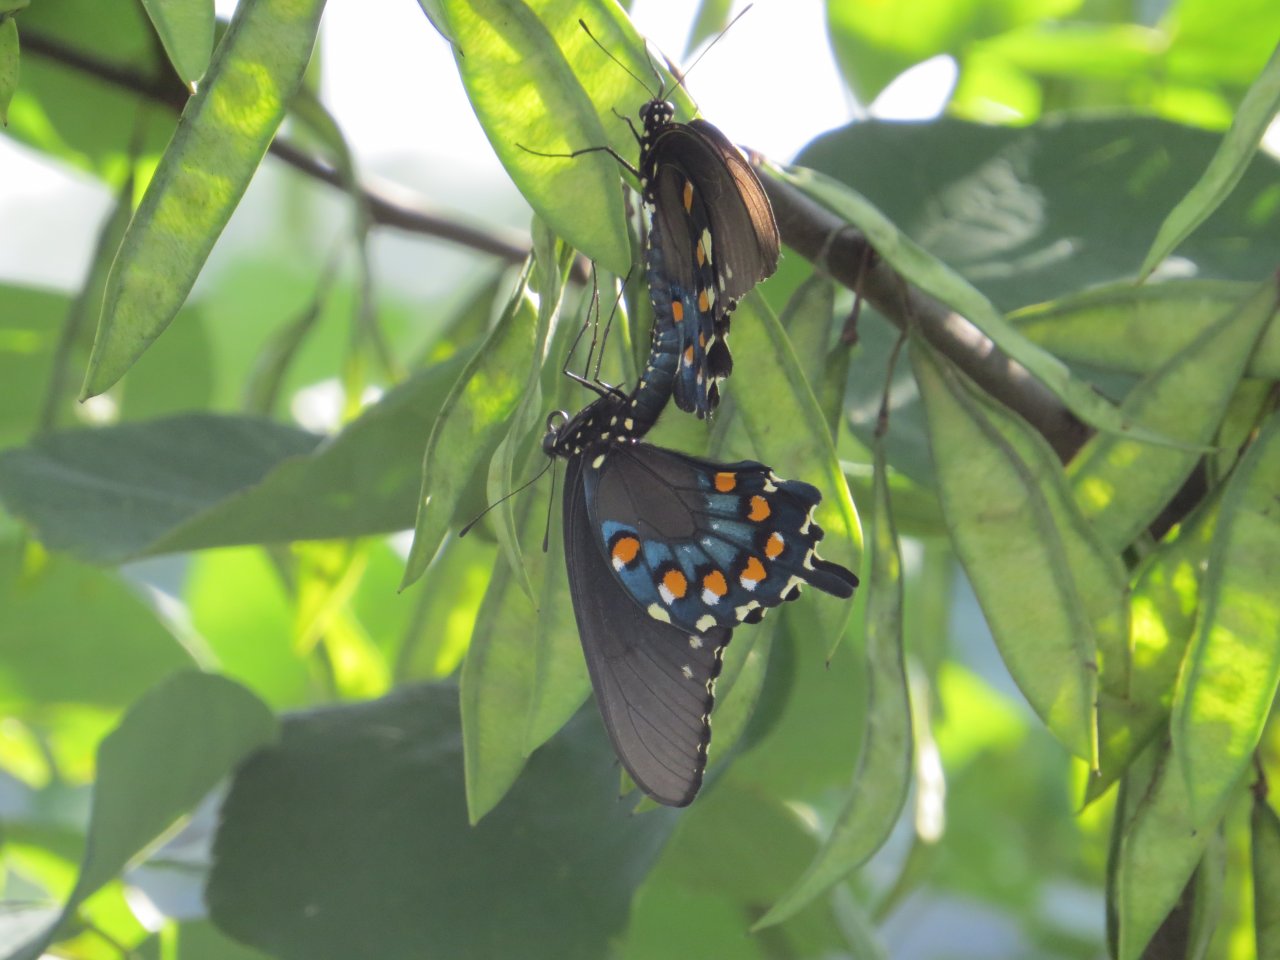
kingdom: Animalia
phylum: Arthropoda
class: Insecta
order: Lepidoptera
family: Papilionidae
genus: Battus
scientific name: Battus philenor
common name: Pipevine Swallowtail
